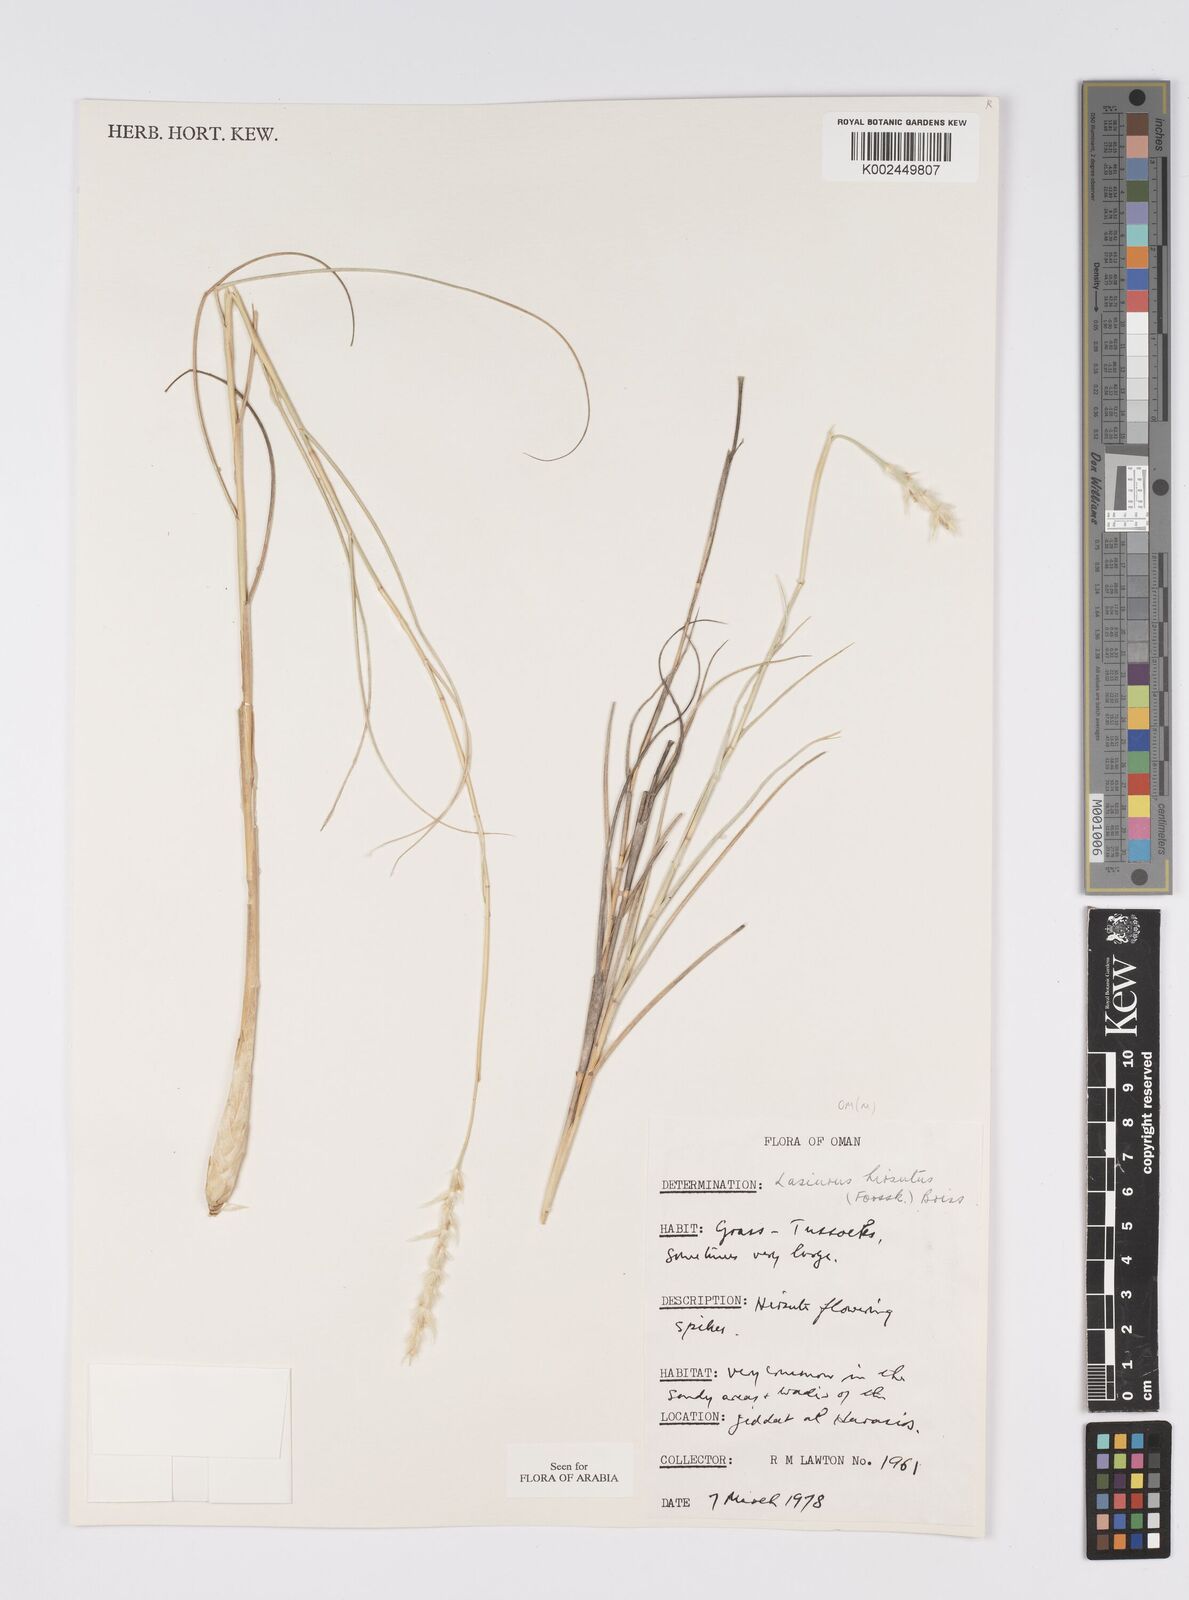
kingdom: Plantae
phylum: Tracheophyta
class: Liliopsida
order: Poales
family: Poaceae
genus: Lasiurus
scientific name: Lasiurus scindicus
